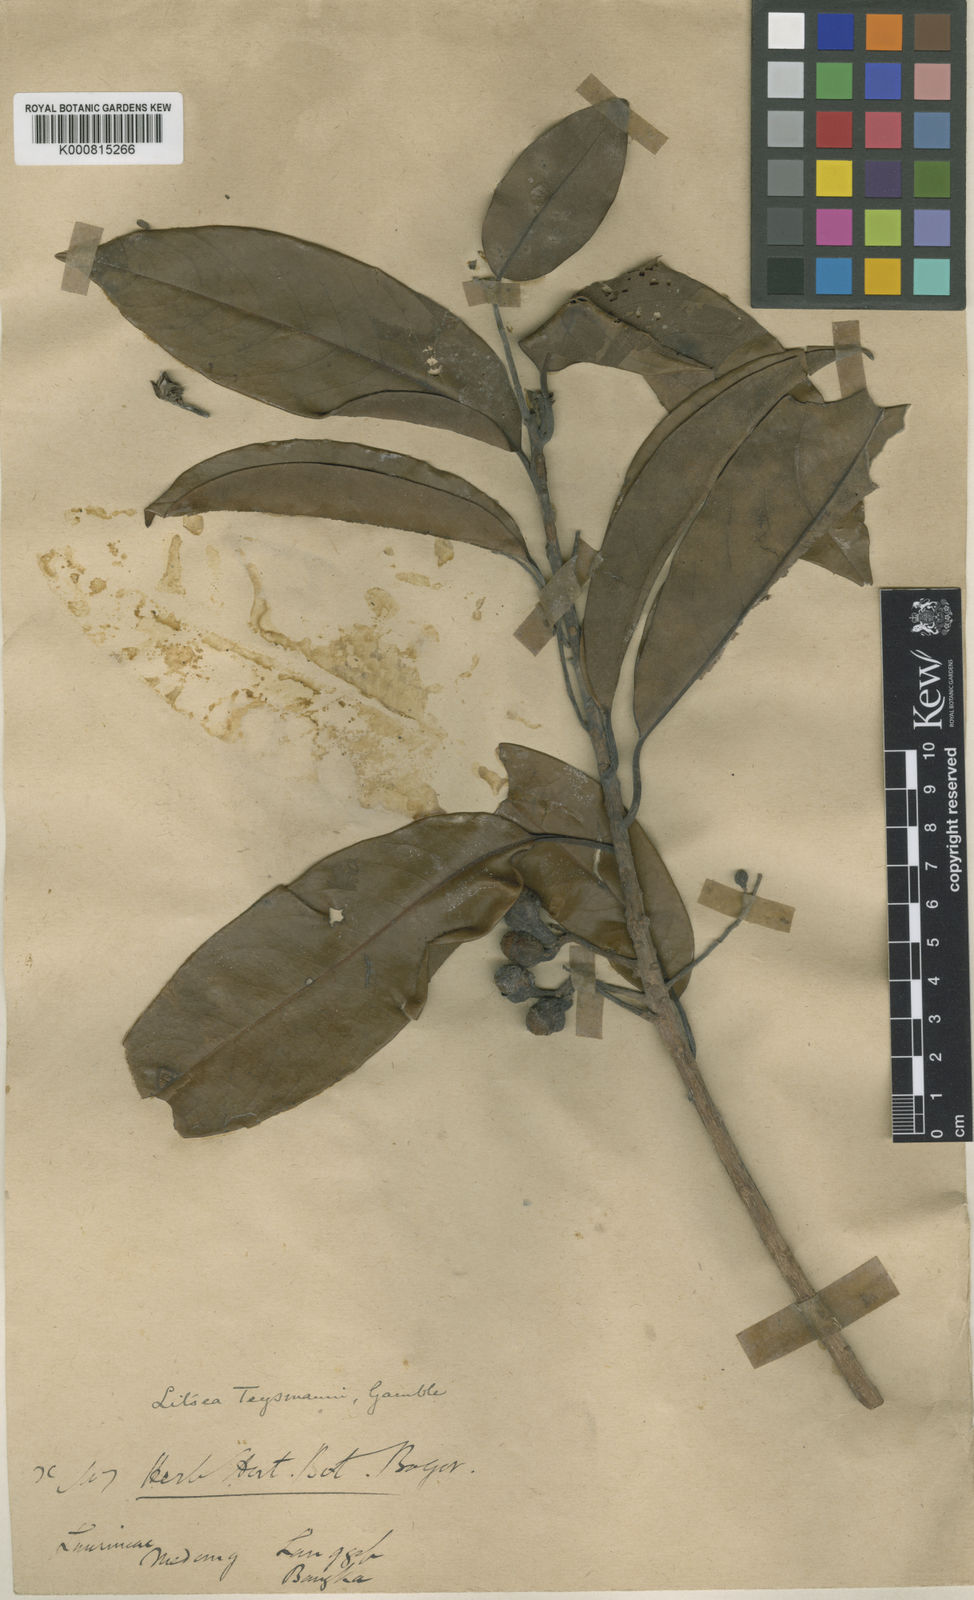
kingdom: Plantae
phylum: Tracheophyta
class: Magnoliopsida
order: Laurales
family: Lauraceae
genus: Litsea
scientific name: Litsea machilifolia
